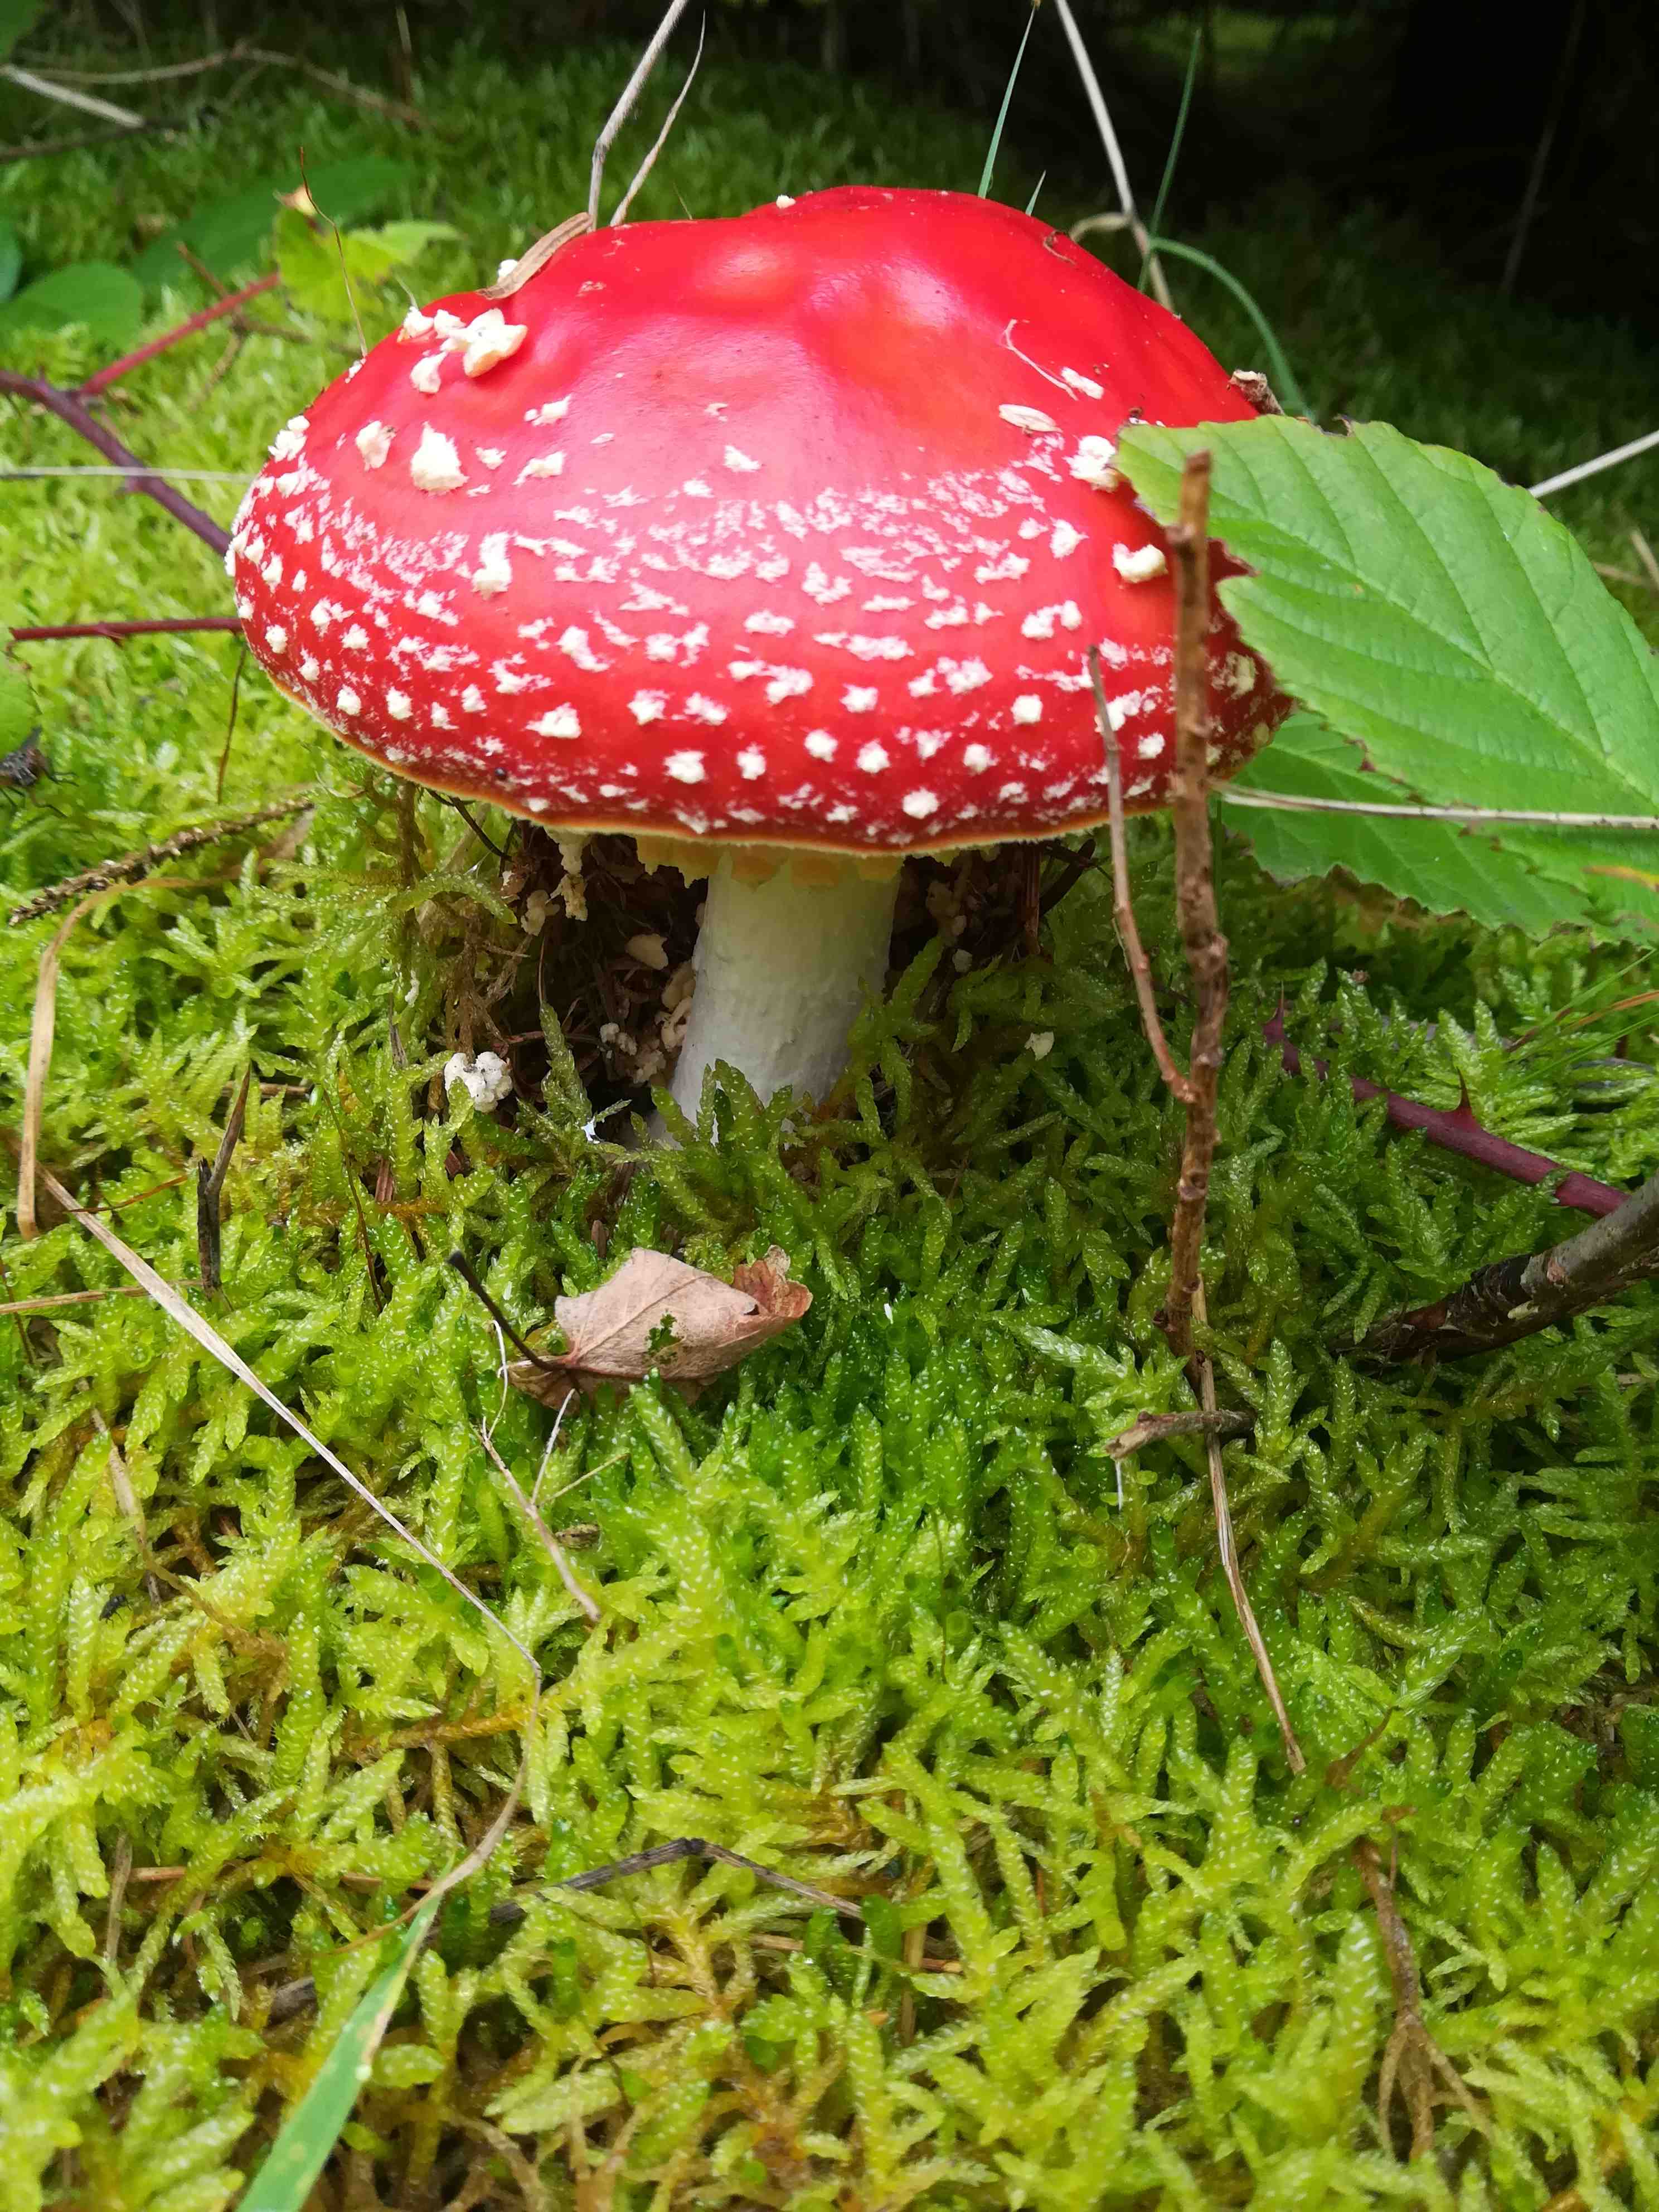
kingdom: Fungi
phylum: Basidiomycota
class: Agaricomycetes
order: Agaricales
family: Amanitaceae
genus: Amanita
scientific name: Amanita muscaria
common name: rød fluesvamp
